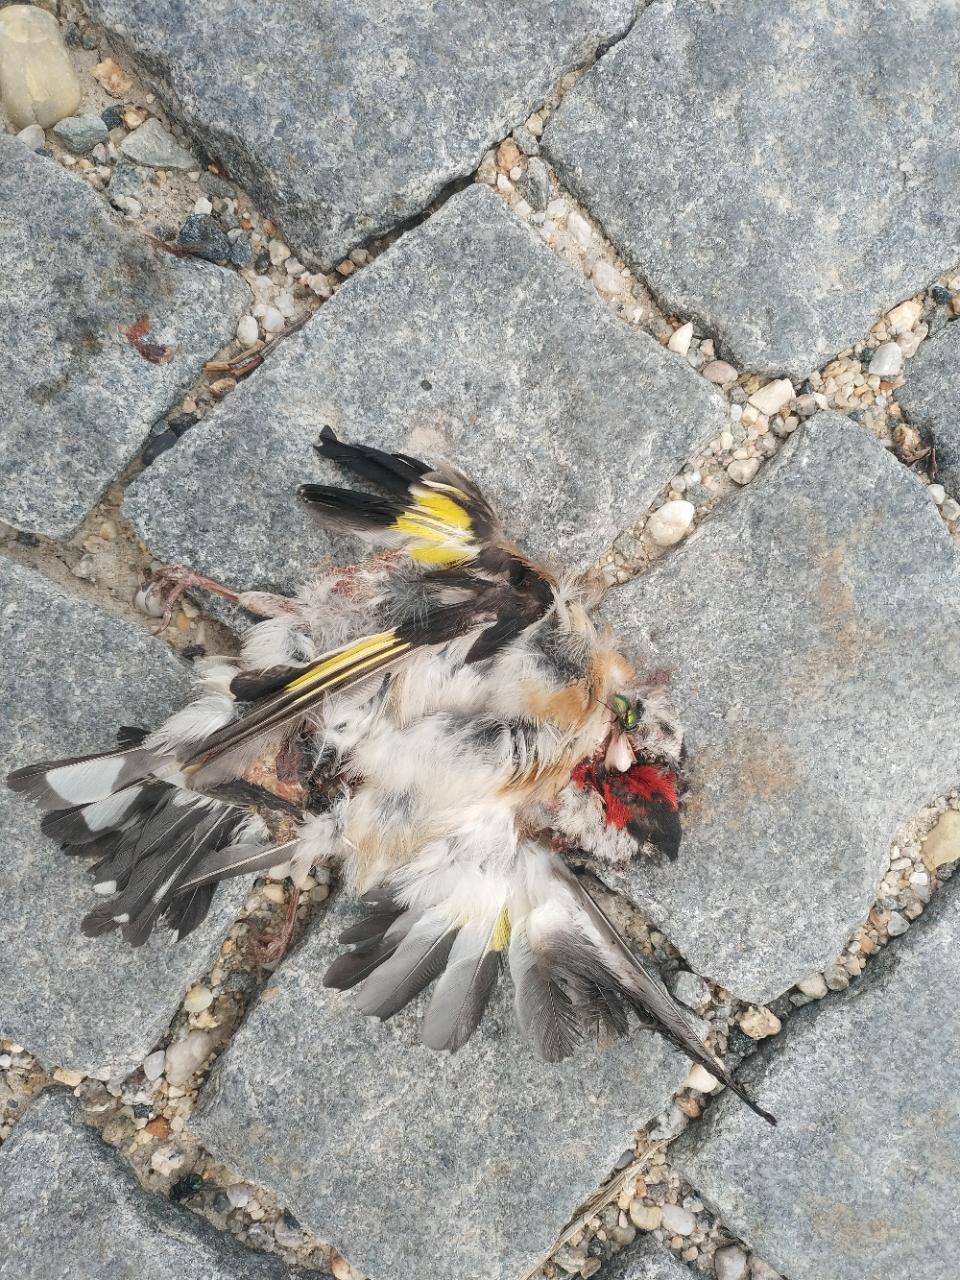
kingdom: Animalia
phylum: Chordata
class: Aves
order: Passeriformes
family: Fringillidae
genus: Carduelis
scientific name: Carduelis carduelis
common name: European goldfinch
